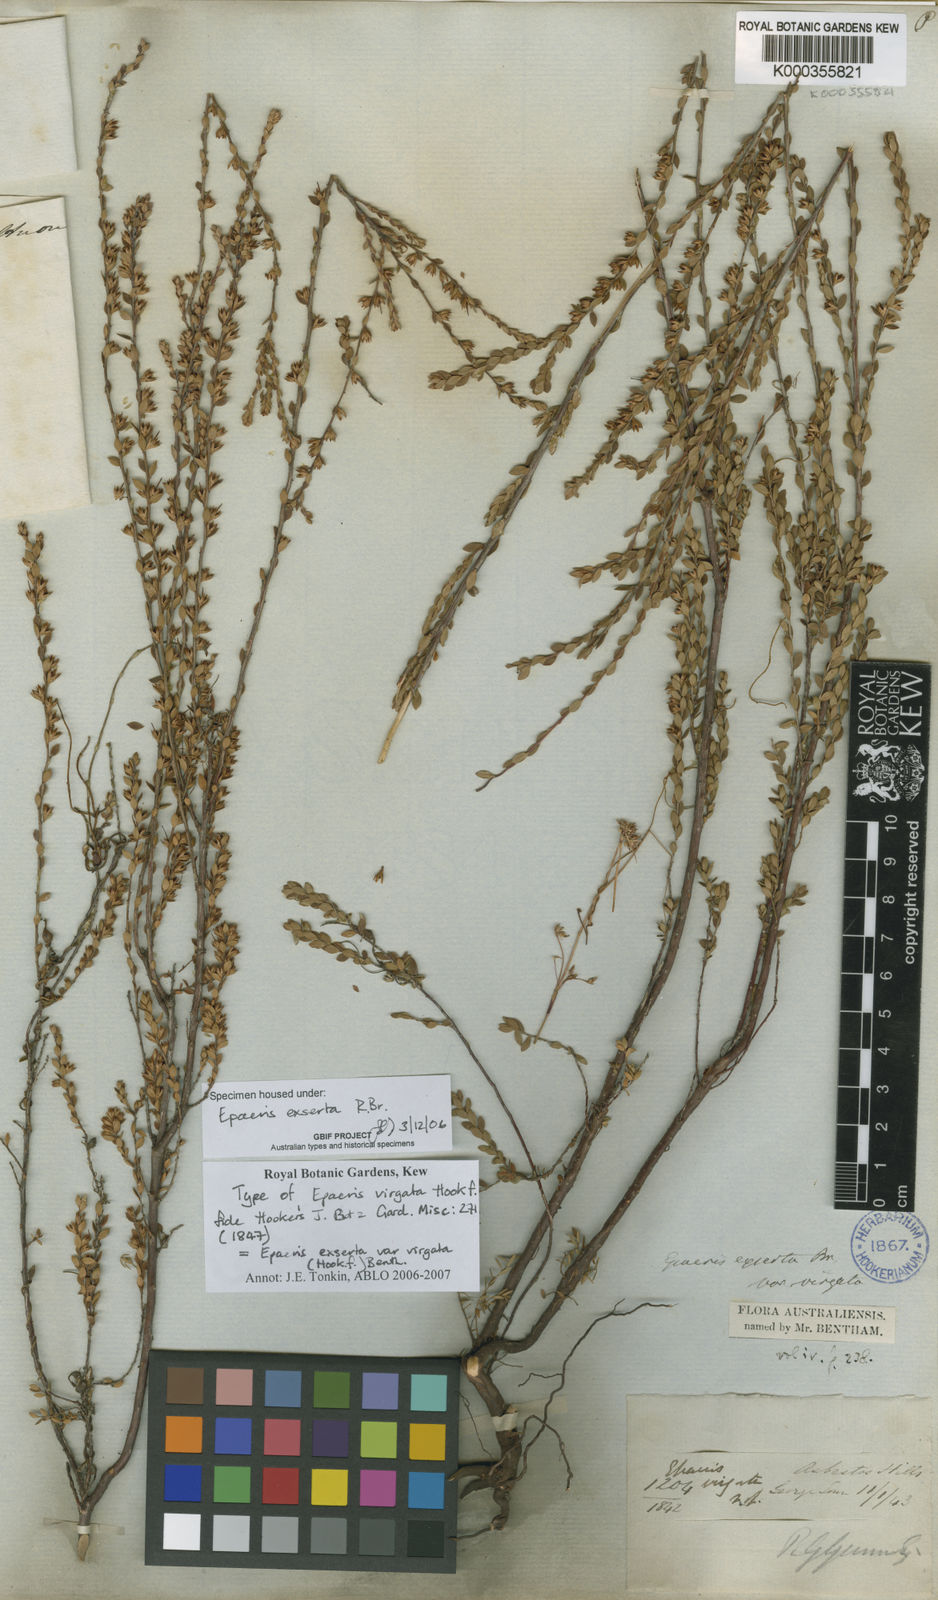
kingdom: Plantae
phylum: Tracheophyta
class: Magnoliopsida
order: Ericales
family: Ericaceae
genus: Epacris
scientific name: Epacris exserta
